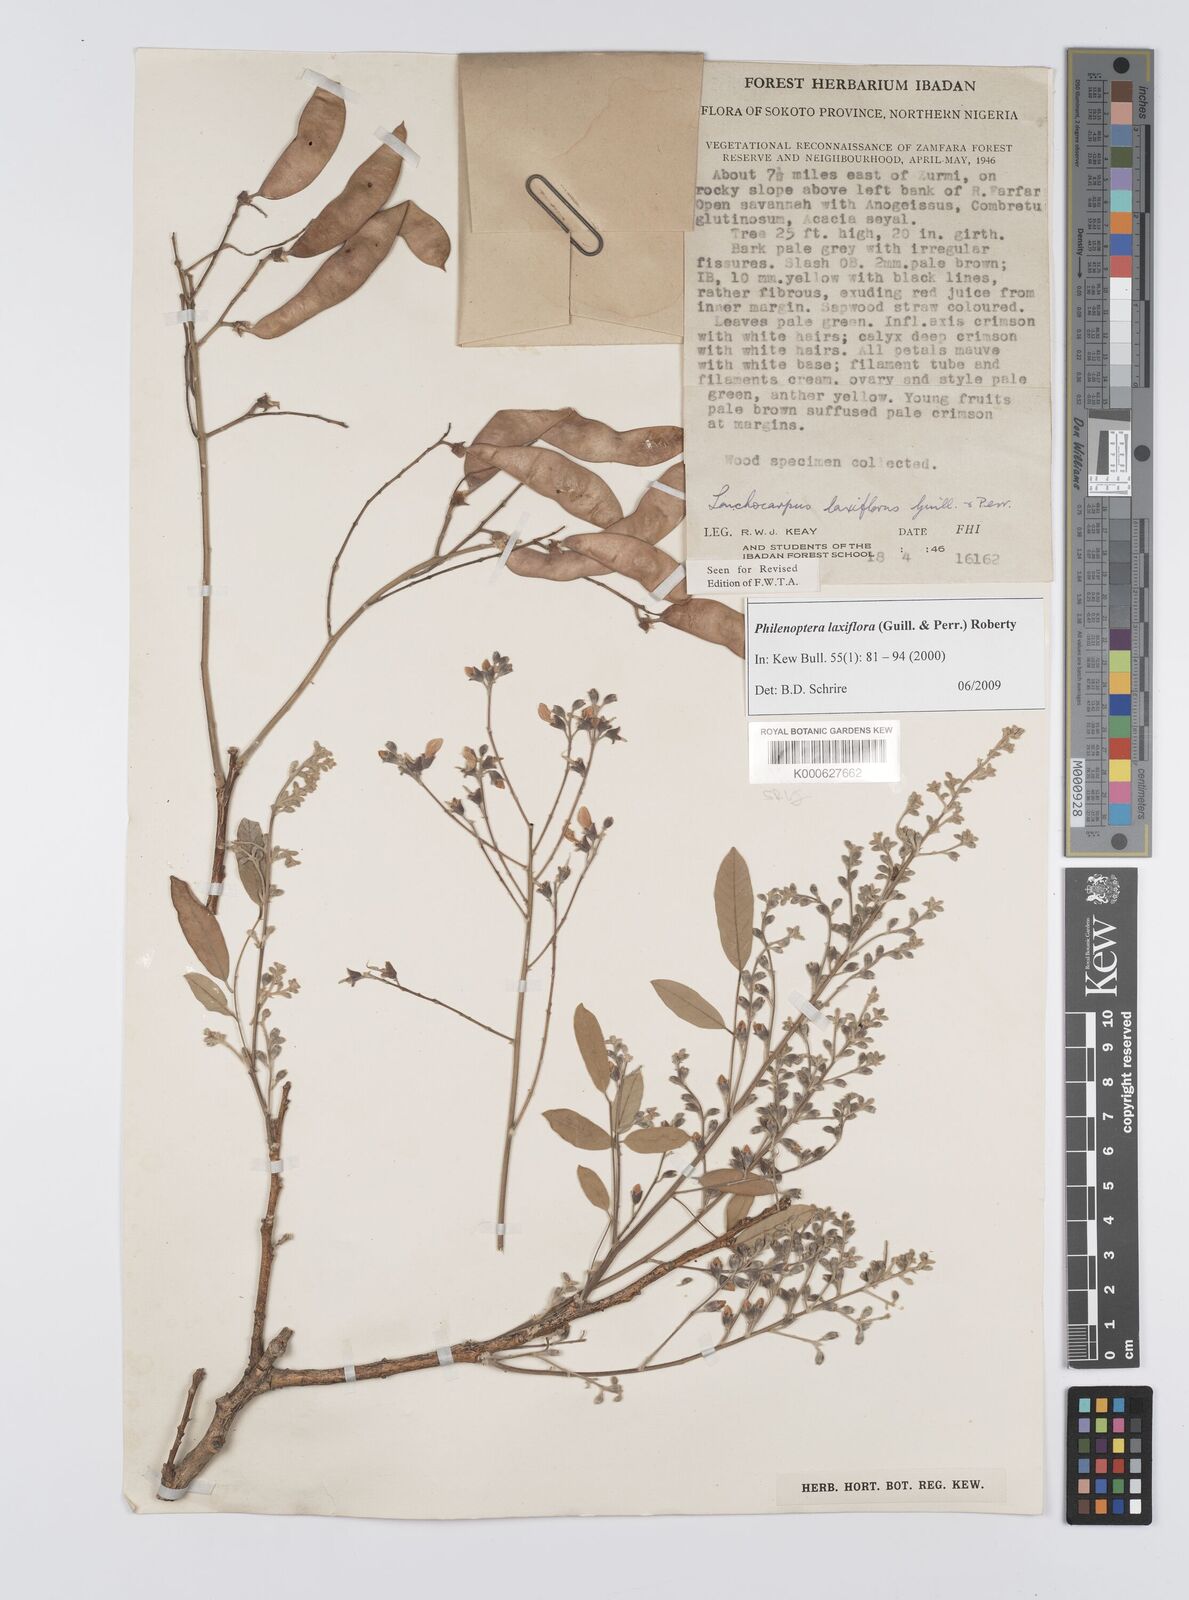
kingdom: Plantae
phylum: Tracheophyta
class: Magnoliopsida
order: Fabales
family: Fabaceae
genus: Philenoptera
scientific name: Philenoptera laxiflora
